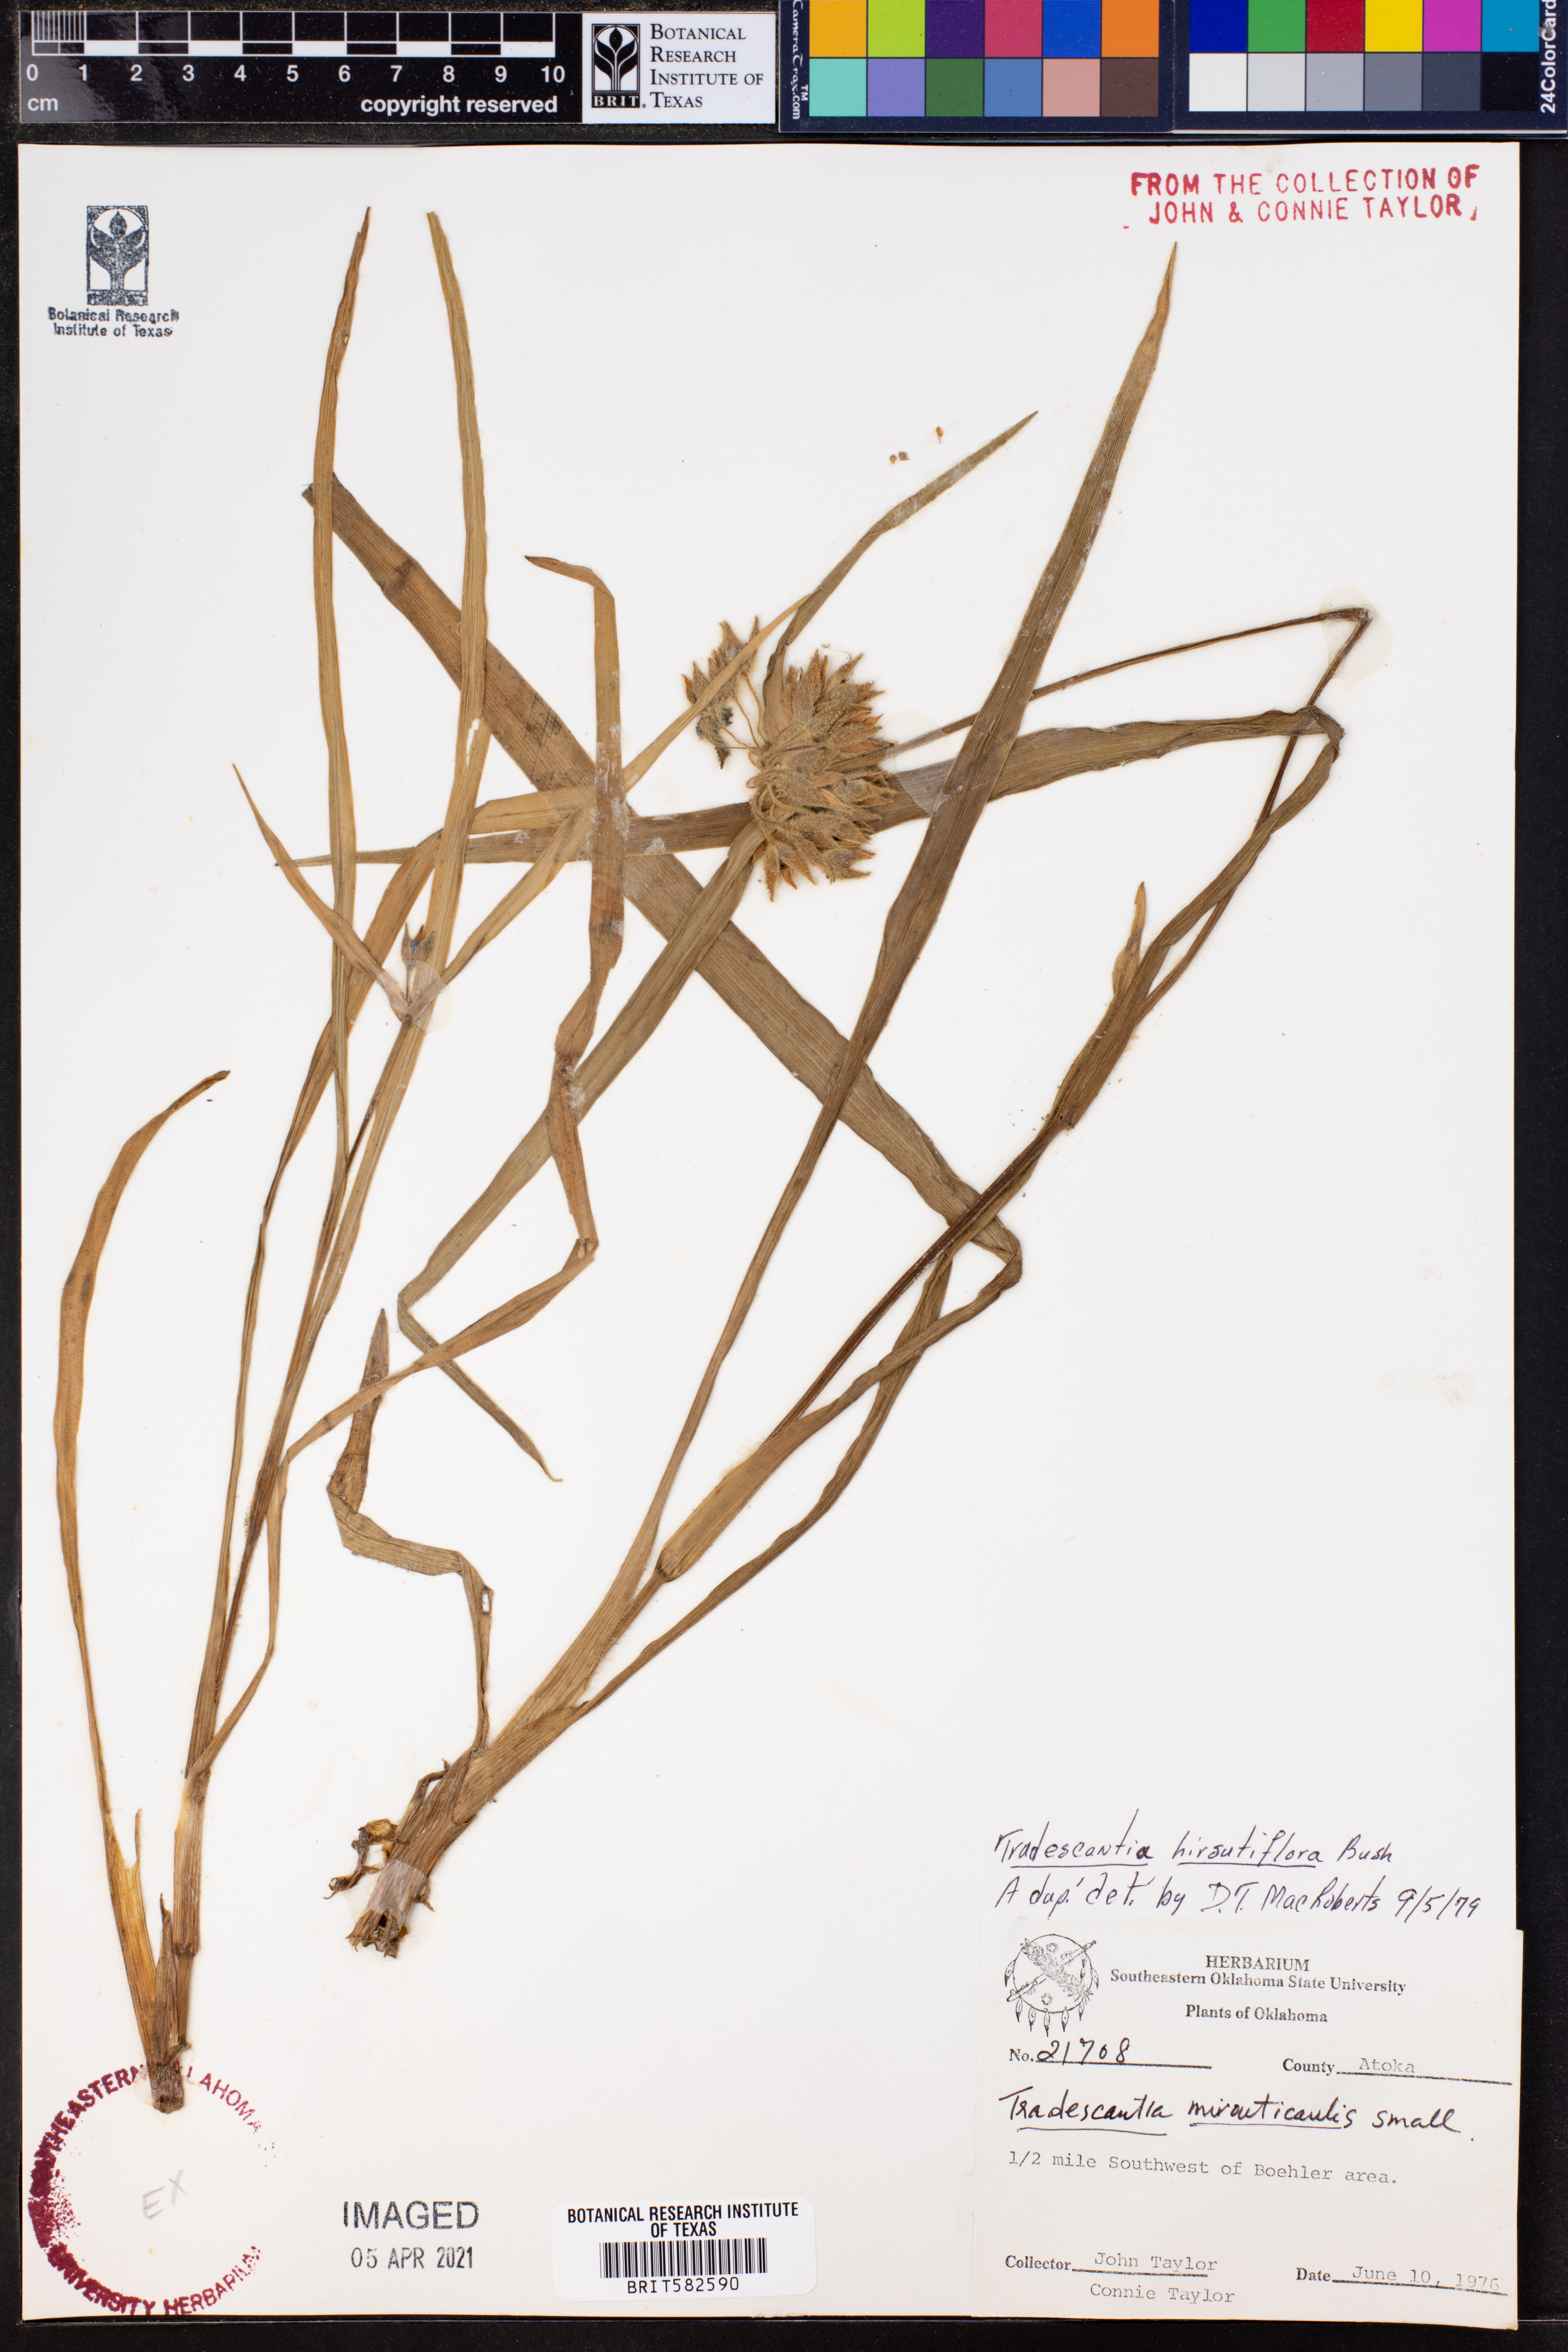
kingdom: Plantae
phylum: Tracheophyta
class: Liliopsida
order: Commelinales
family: Commelinaceae
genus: Tradescantia
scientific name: Tradescantia hirsutiflora
